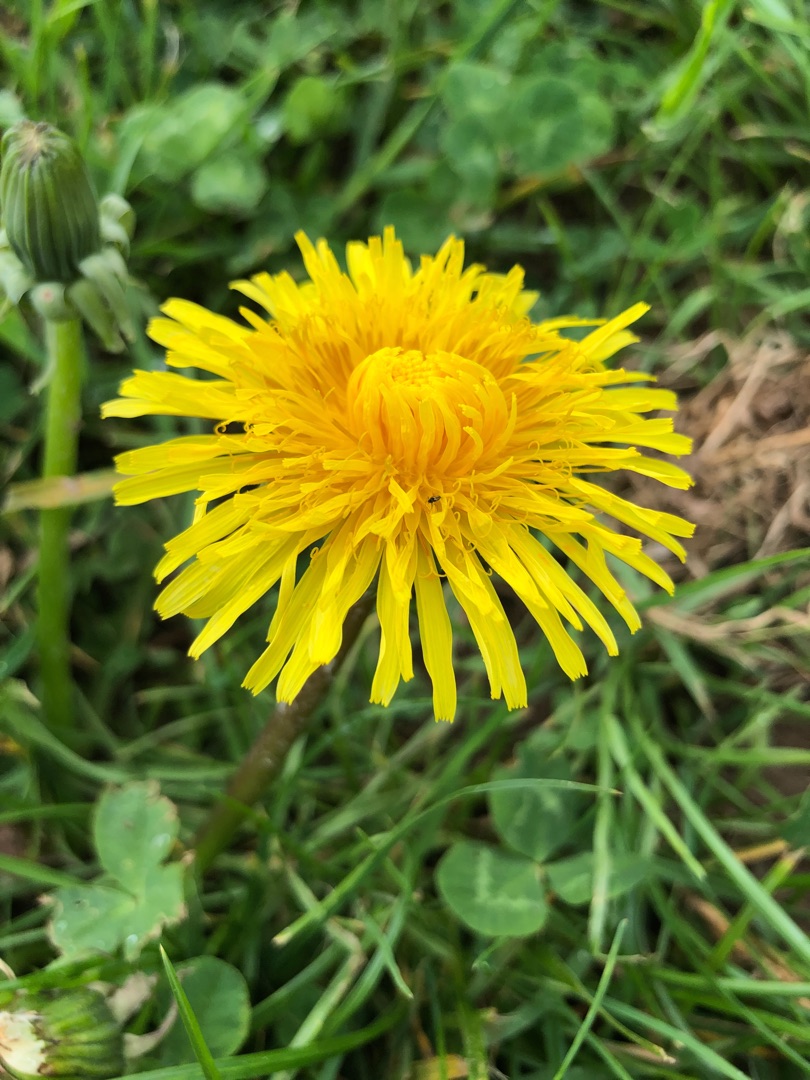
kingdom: Plantae
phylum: Tracheophyta
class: Magnoliopsida
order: Asterales
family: Asteraceae
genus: Taraxacum
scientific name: Taraxacum
